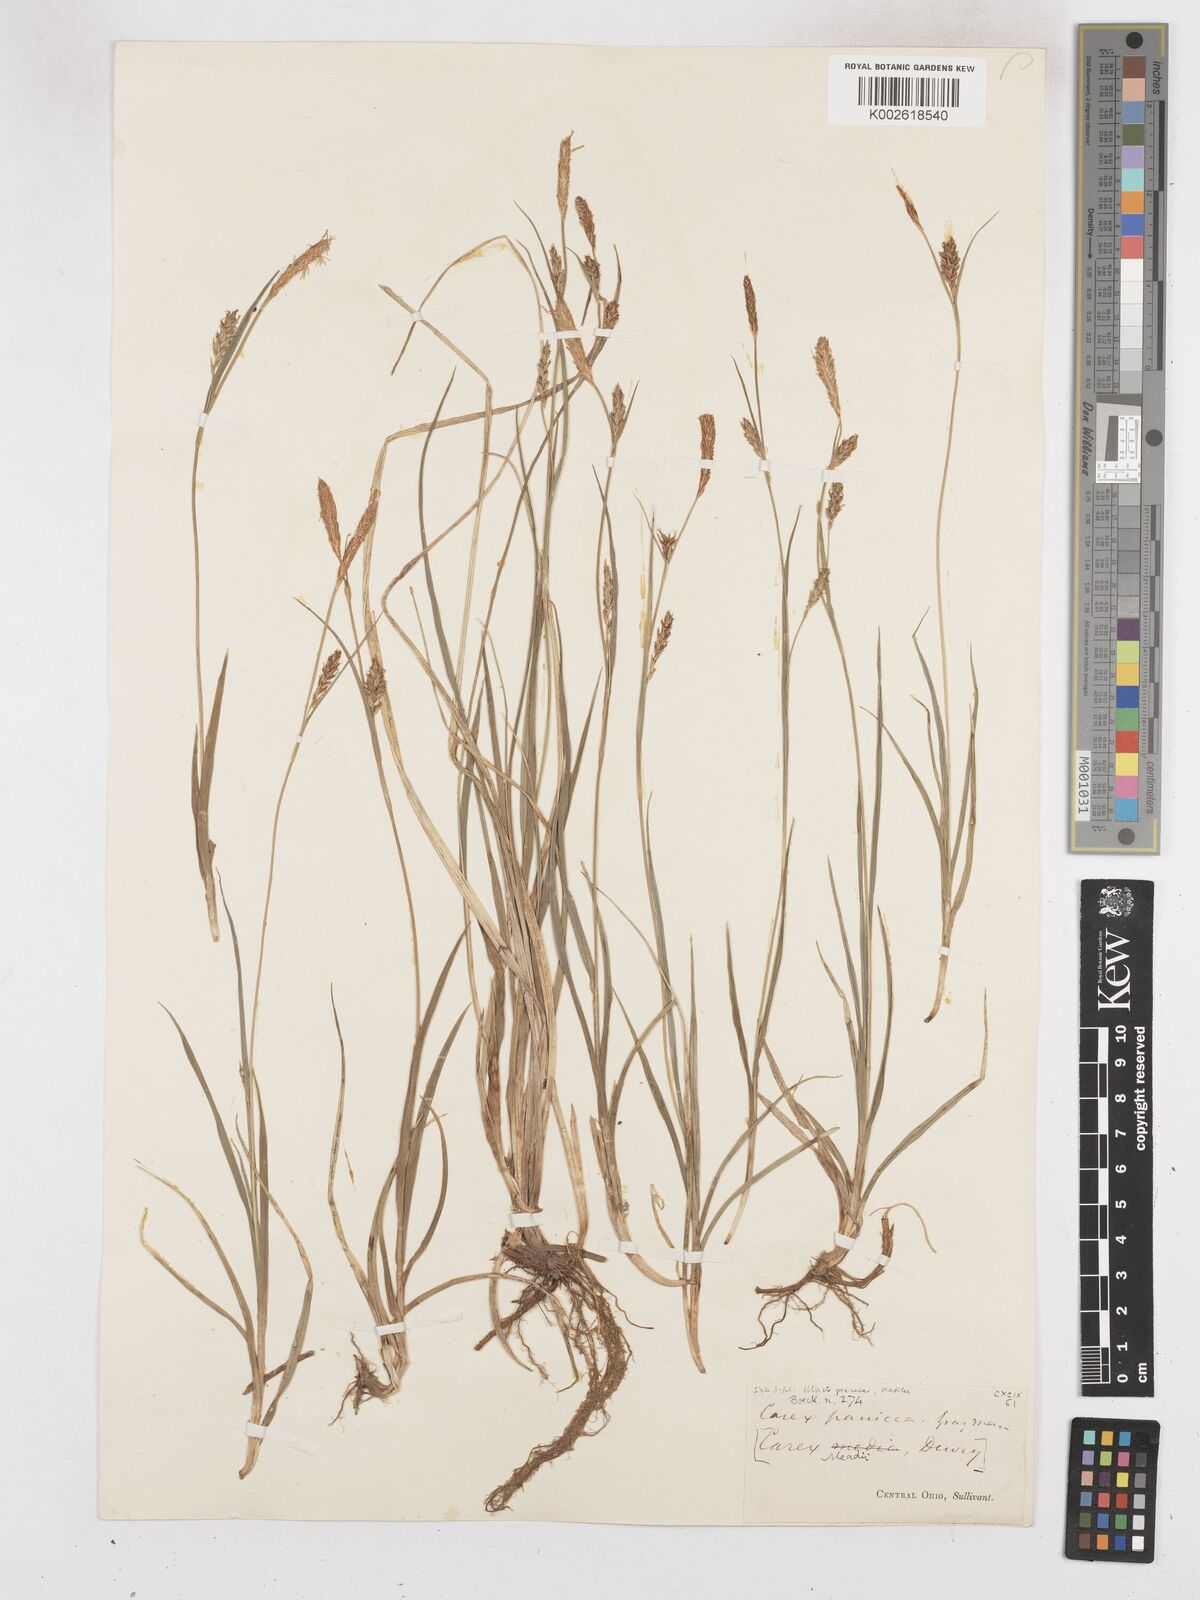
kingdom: Plantae
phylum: Tracheophyta
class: Liliopsida
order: Poales
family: Cyperaceae
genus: Carex
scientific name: Carex meadii
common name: Mead's sedge
